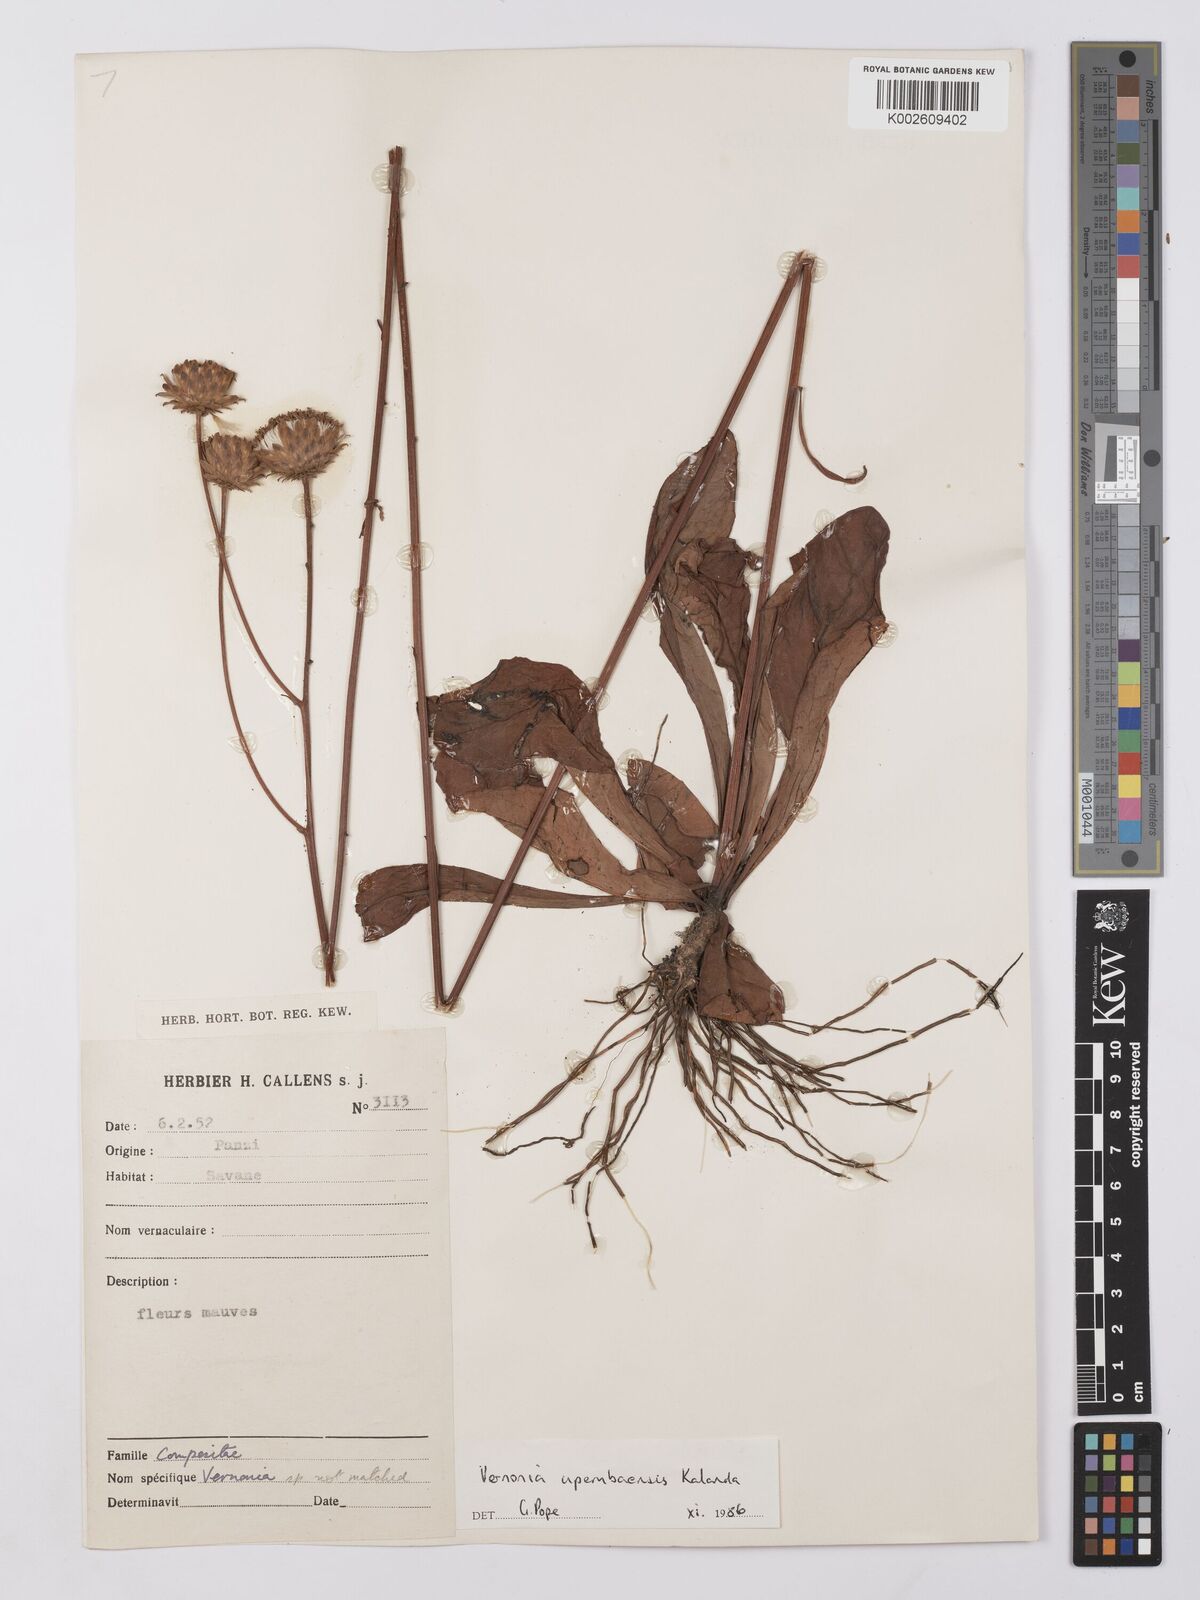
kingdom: Plantae
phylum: Tracheophyta
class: Magnoliopsida
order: Asterales
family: Asteraceae
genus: Vernonia
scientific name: Vernonia upembaensis
